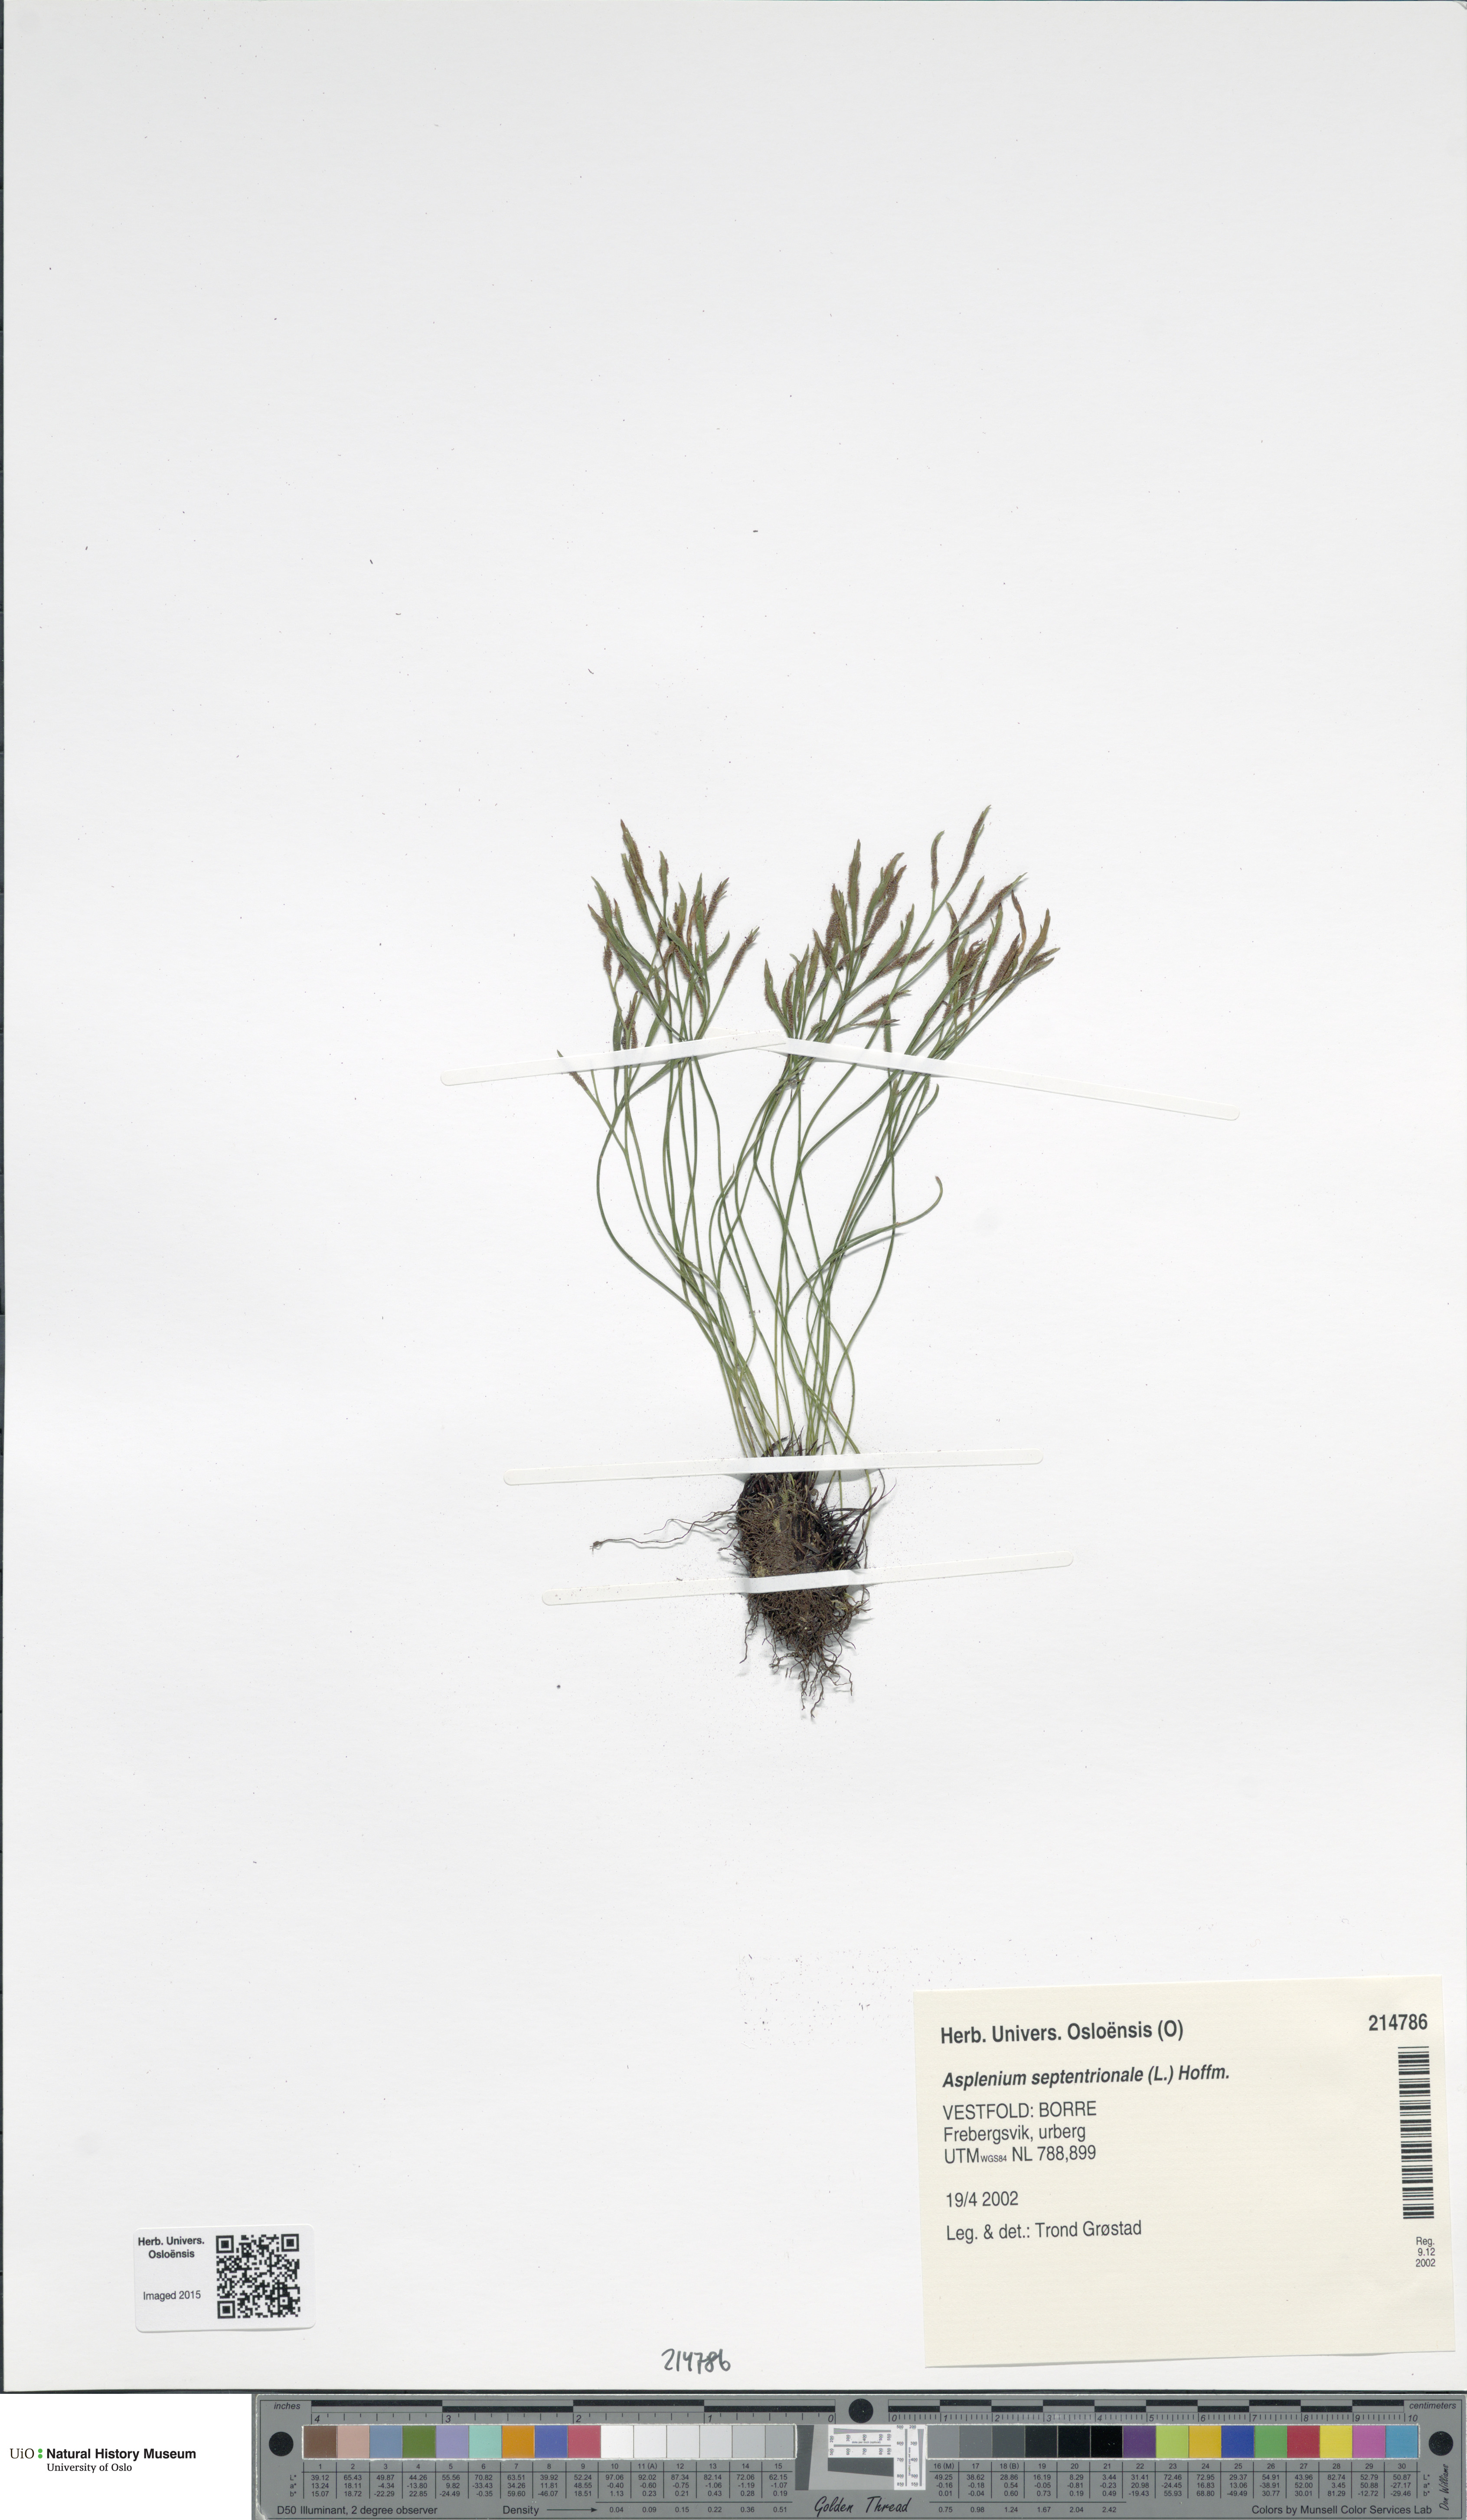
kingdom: Plantae
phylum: Tracheophyta
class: Polypodiopsida
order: Polypodiales
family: Aspleniaceae
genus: Asplenium
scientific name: Asplenium septentrionale
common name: Forked spleenwort
